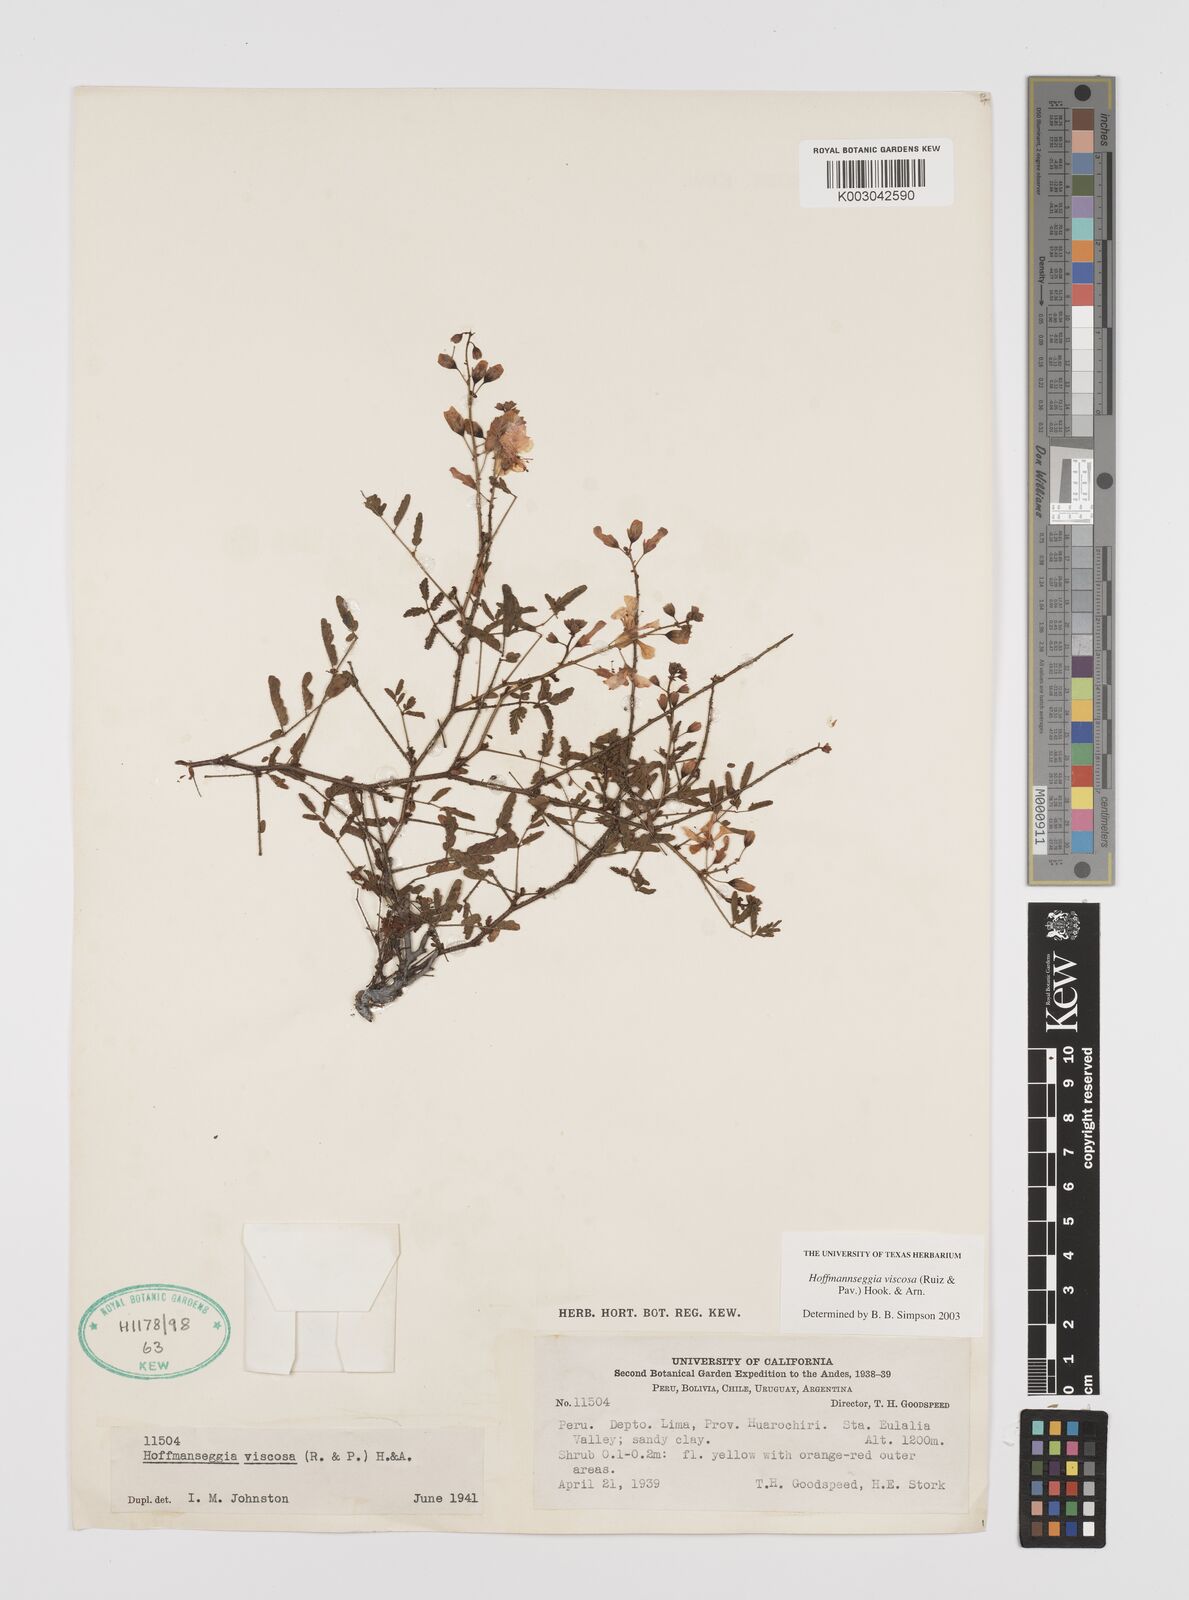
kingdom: Plantae
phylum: Tracheophyta
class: Magnoliopsida
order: Fabales
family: Fabaceae
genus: Hoffmannseggia
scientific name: Hoffmannseggia viscosa
